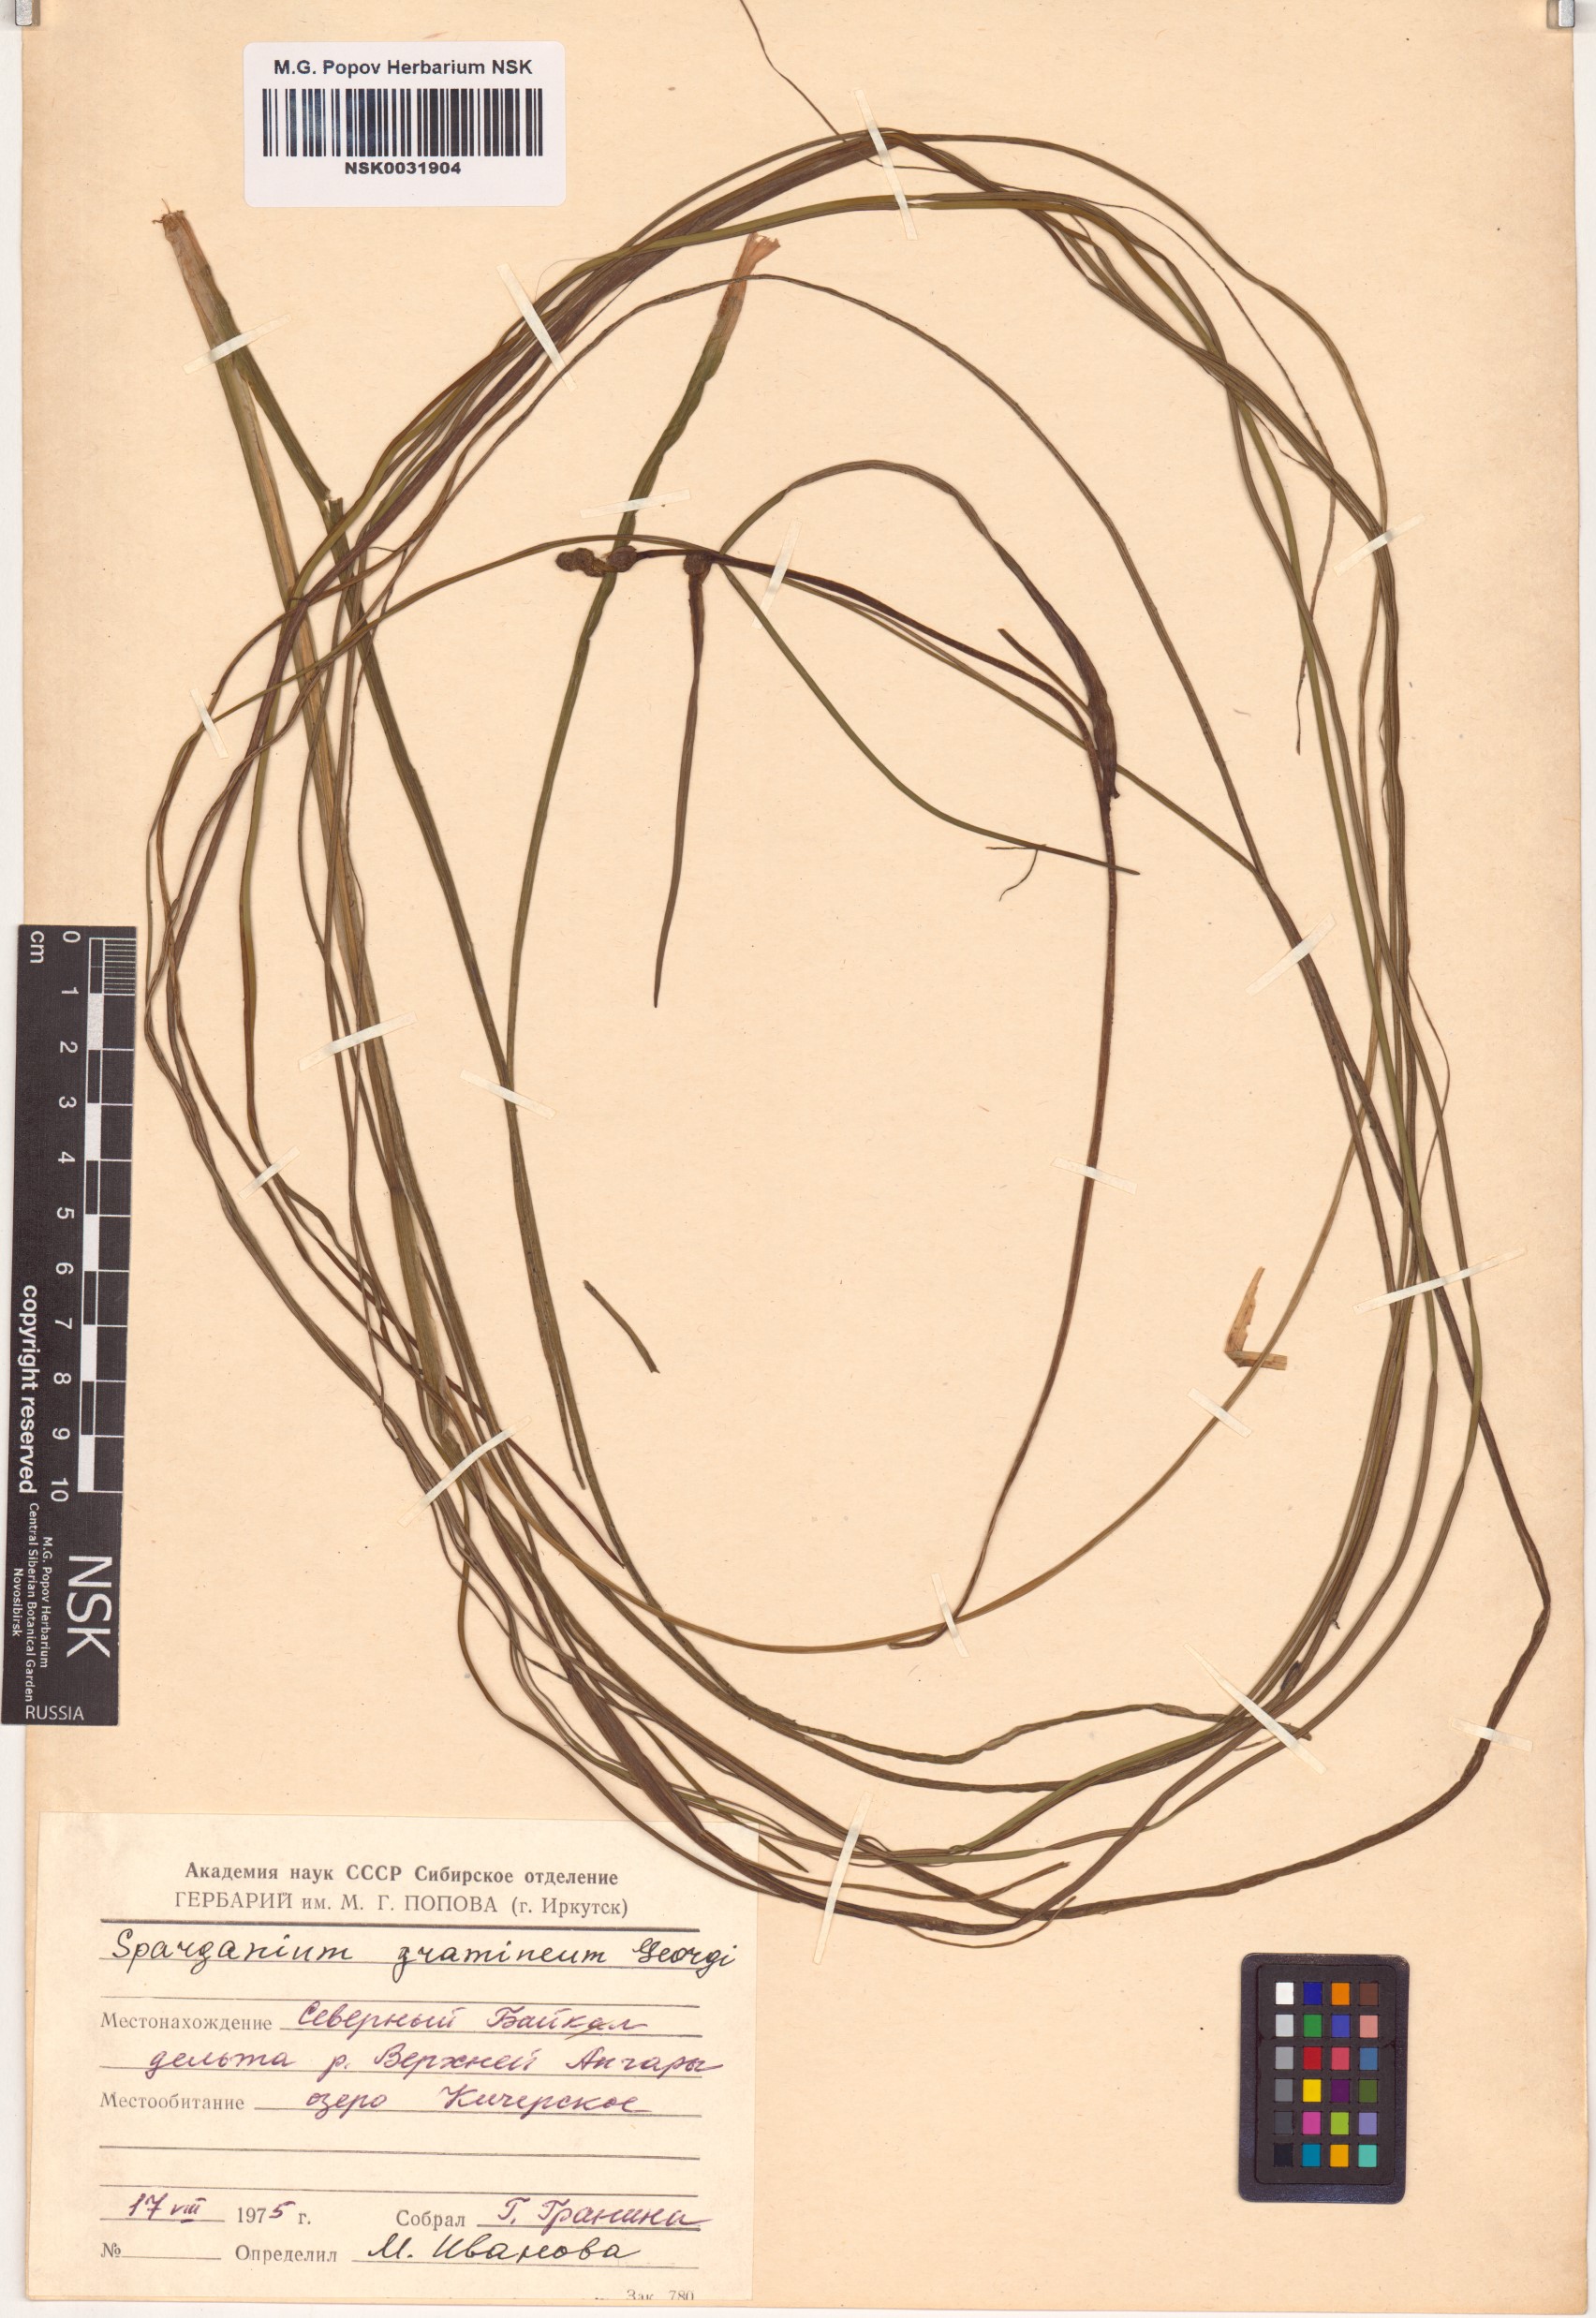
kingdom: Plantae
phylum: Tracheophyta
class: Liliopsida
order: Poales
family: Typhaceae
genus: Sparganium
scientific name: Sparganium gramineum
